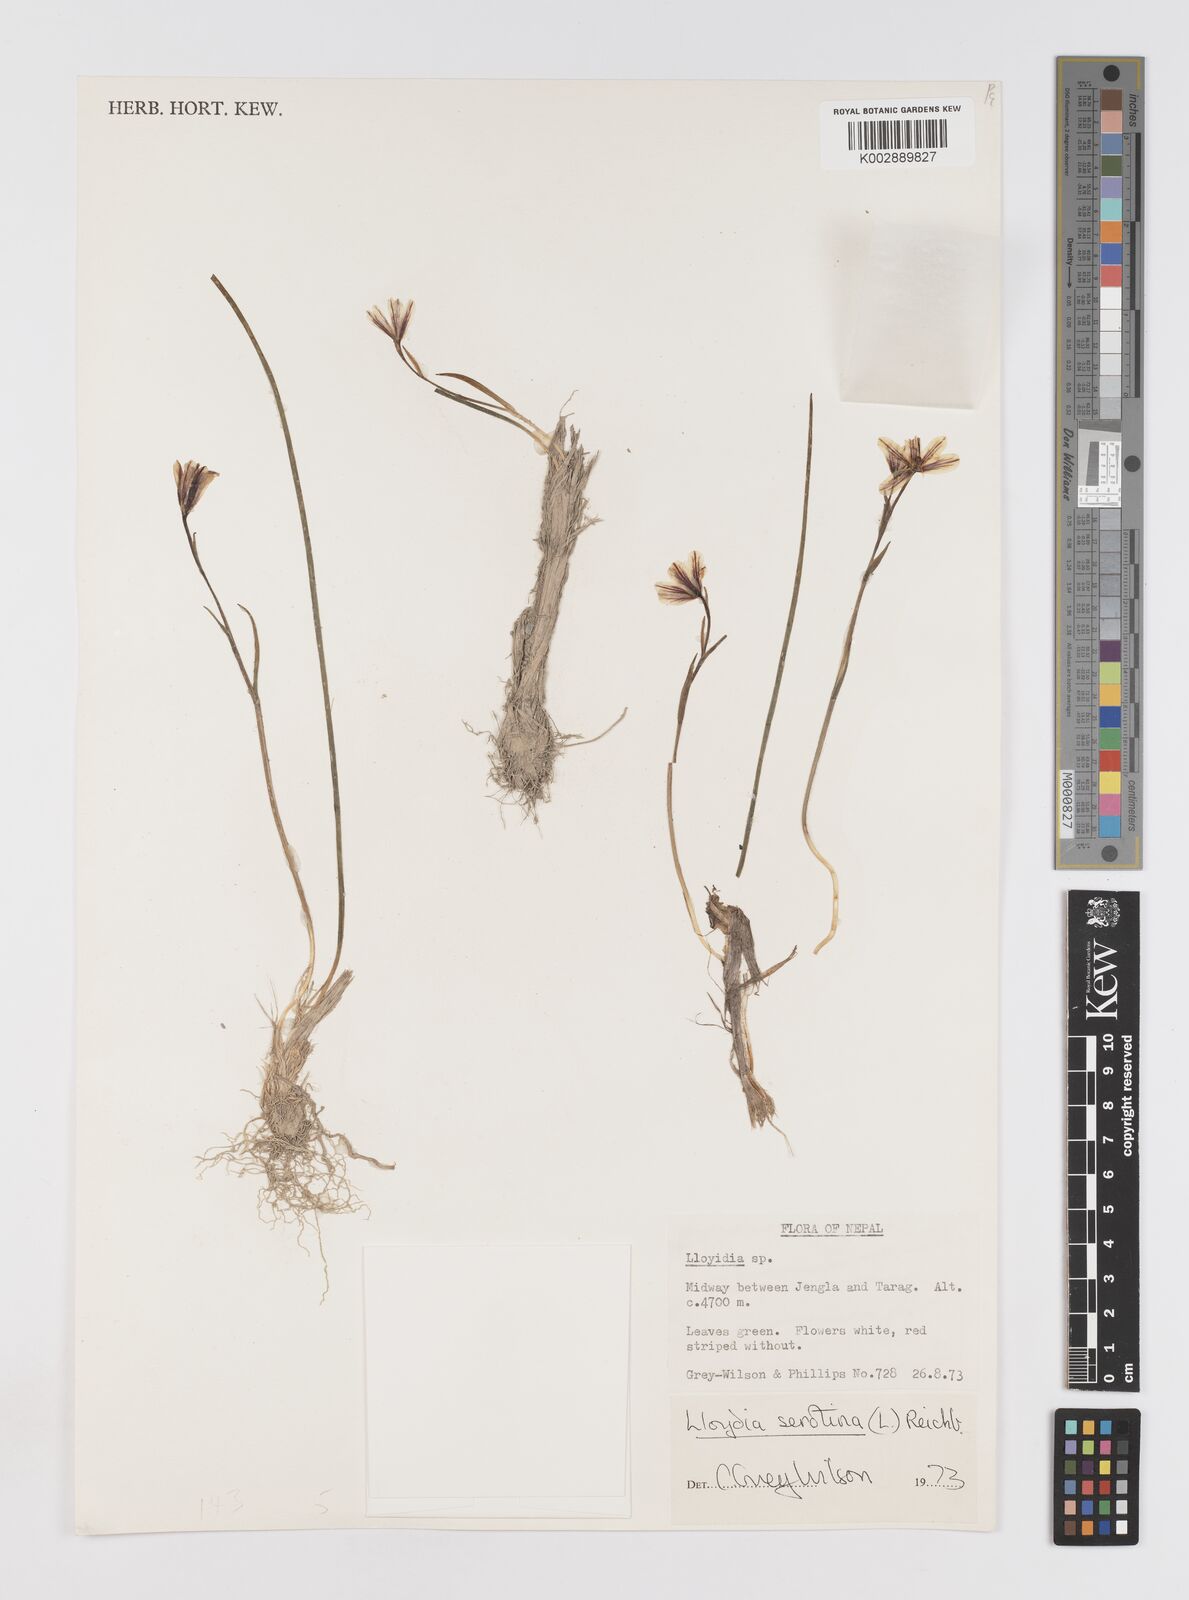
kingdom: Plantae
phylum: Tracheophyta
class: Liliopsida
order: Liliales
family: Liliaceae
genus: Gagea
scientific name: Gagea serotina
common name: Snowdon lily
